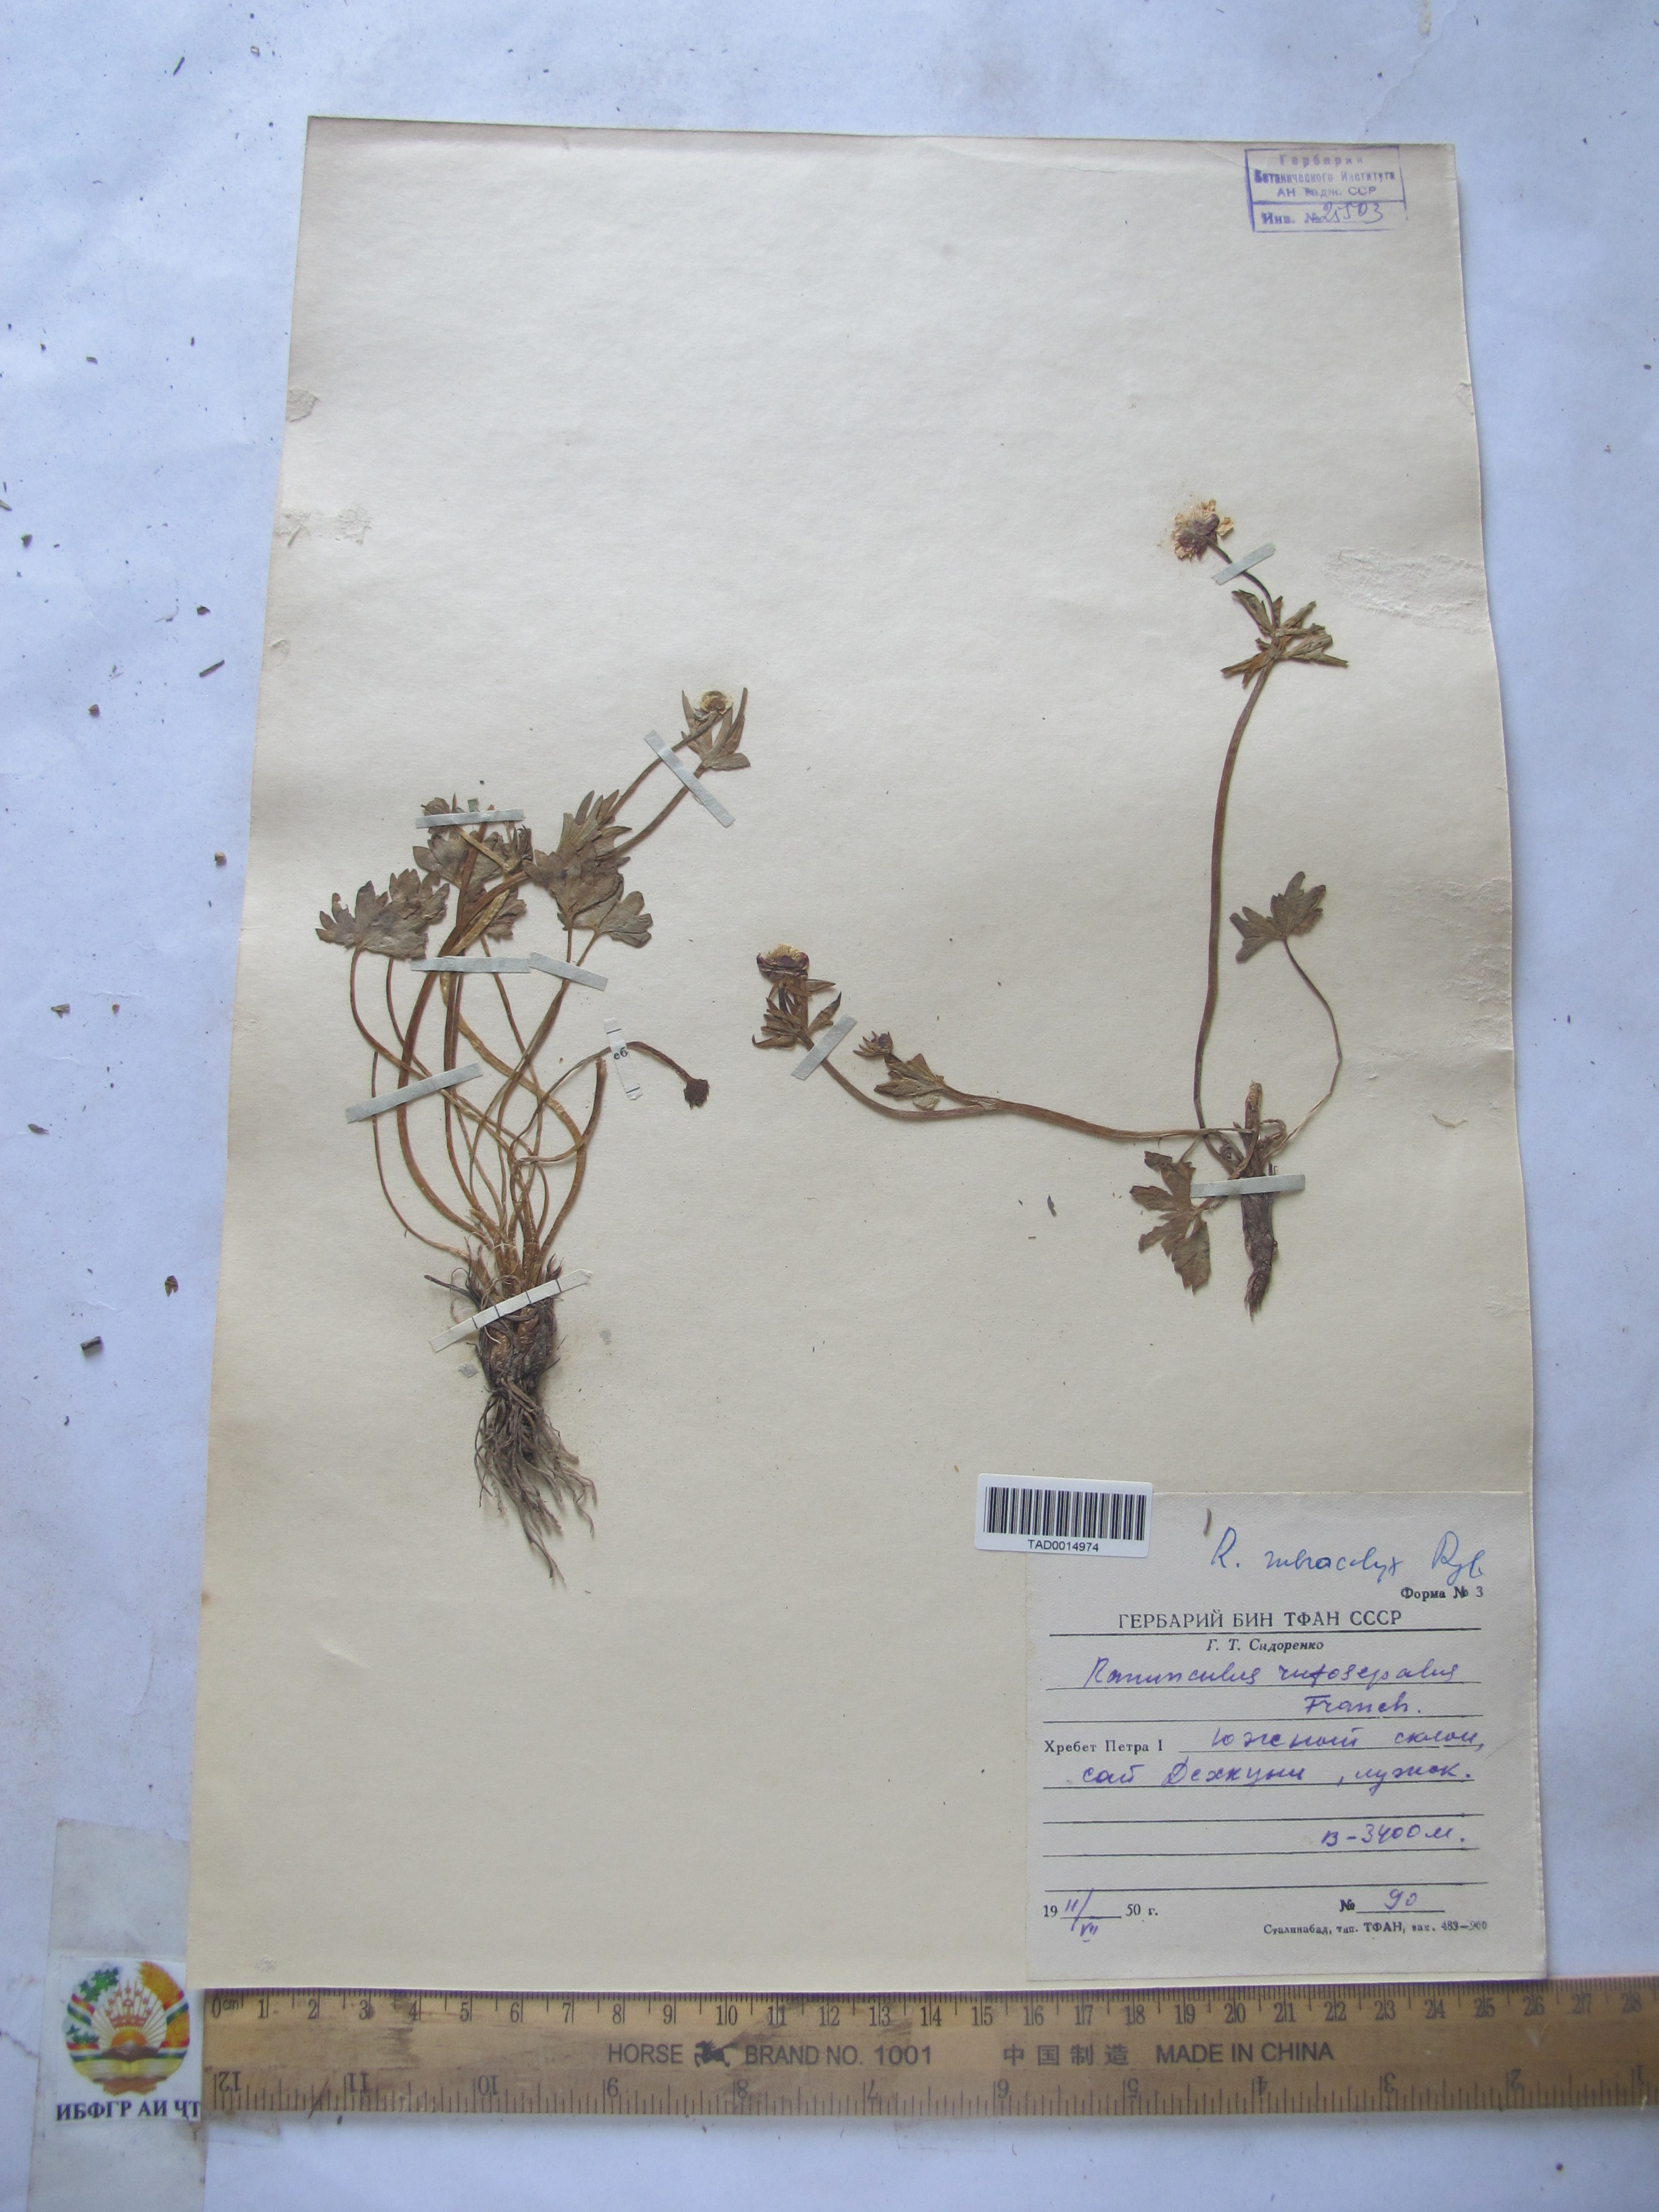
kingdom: Plantae
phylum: Tracheophyta
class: Magnoliopsida
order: Ranunculales
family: Ranunculaceae
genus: Ranunculus
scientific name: Ranunculus rufosepalus
